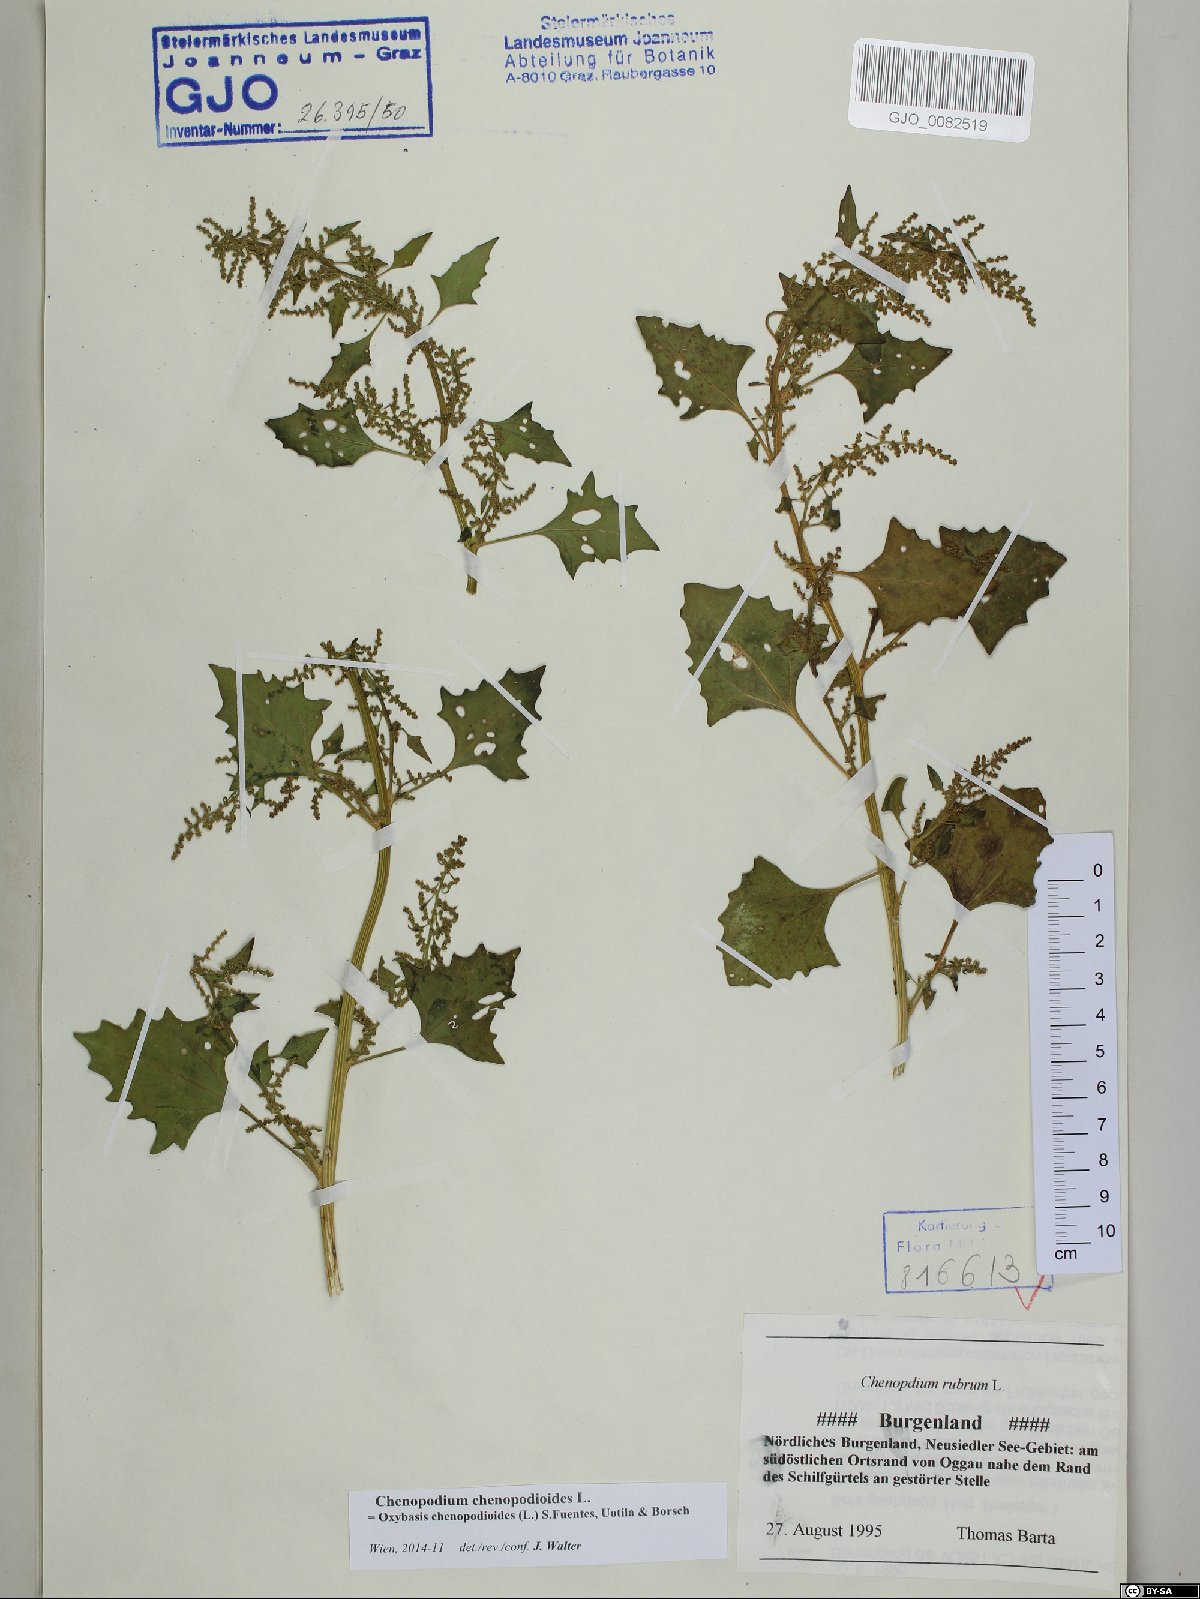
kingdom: Plantae
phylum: Tracheophyta
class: Magnoliopsida
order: Caryophyllales
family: Amaranthaceae
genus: Oxybasis
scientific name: Oxybasis chenopodioides
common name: Saltmarsh goosefoot
